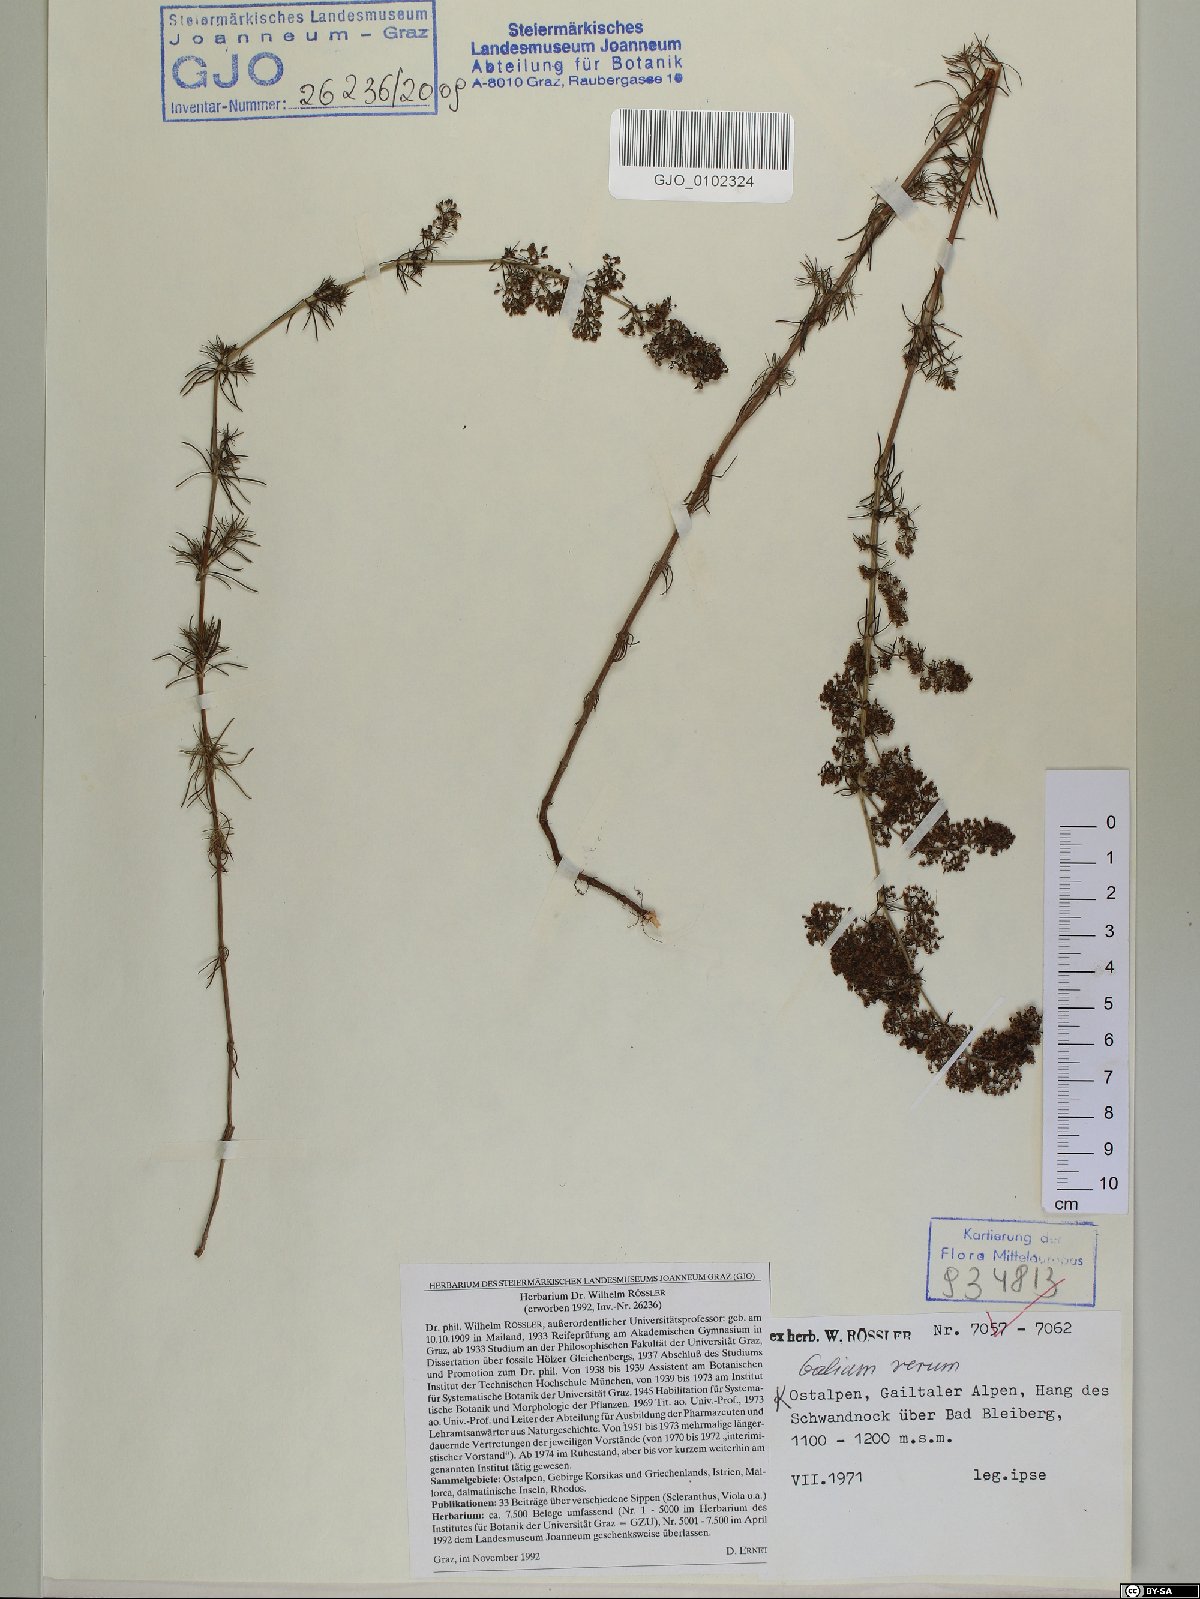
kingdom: Plantae
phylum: Tracheophyta
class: Magnoliopsida
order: Gentianales
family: Rubiaceae
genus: Galium
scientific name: Galium verum
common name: Lady's bedstraw
